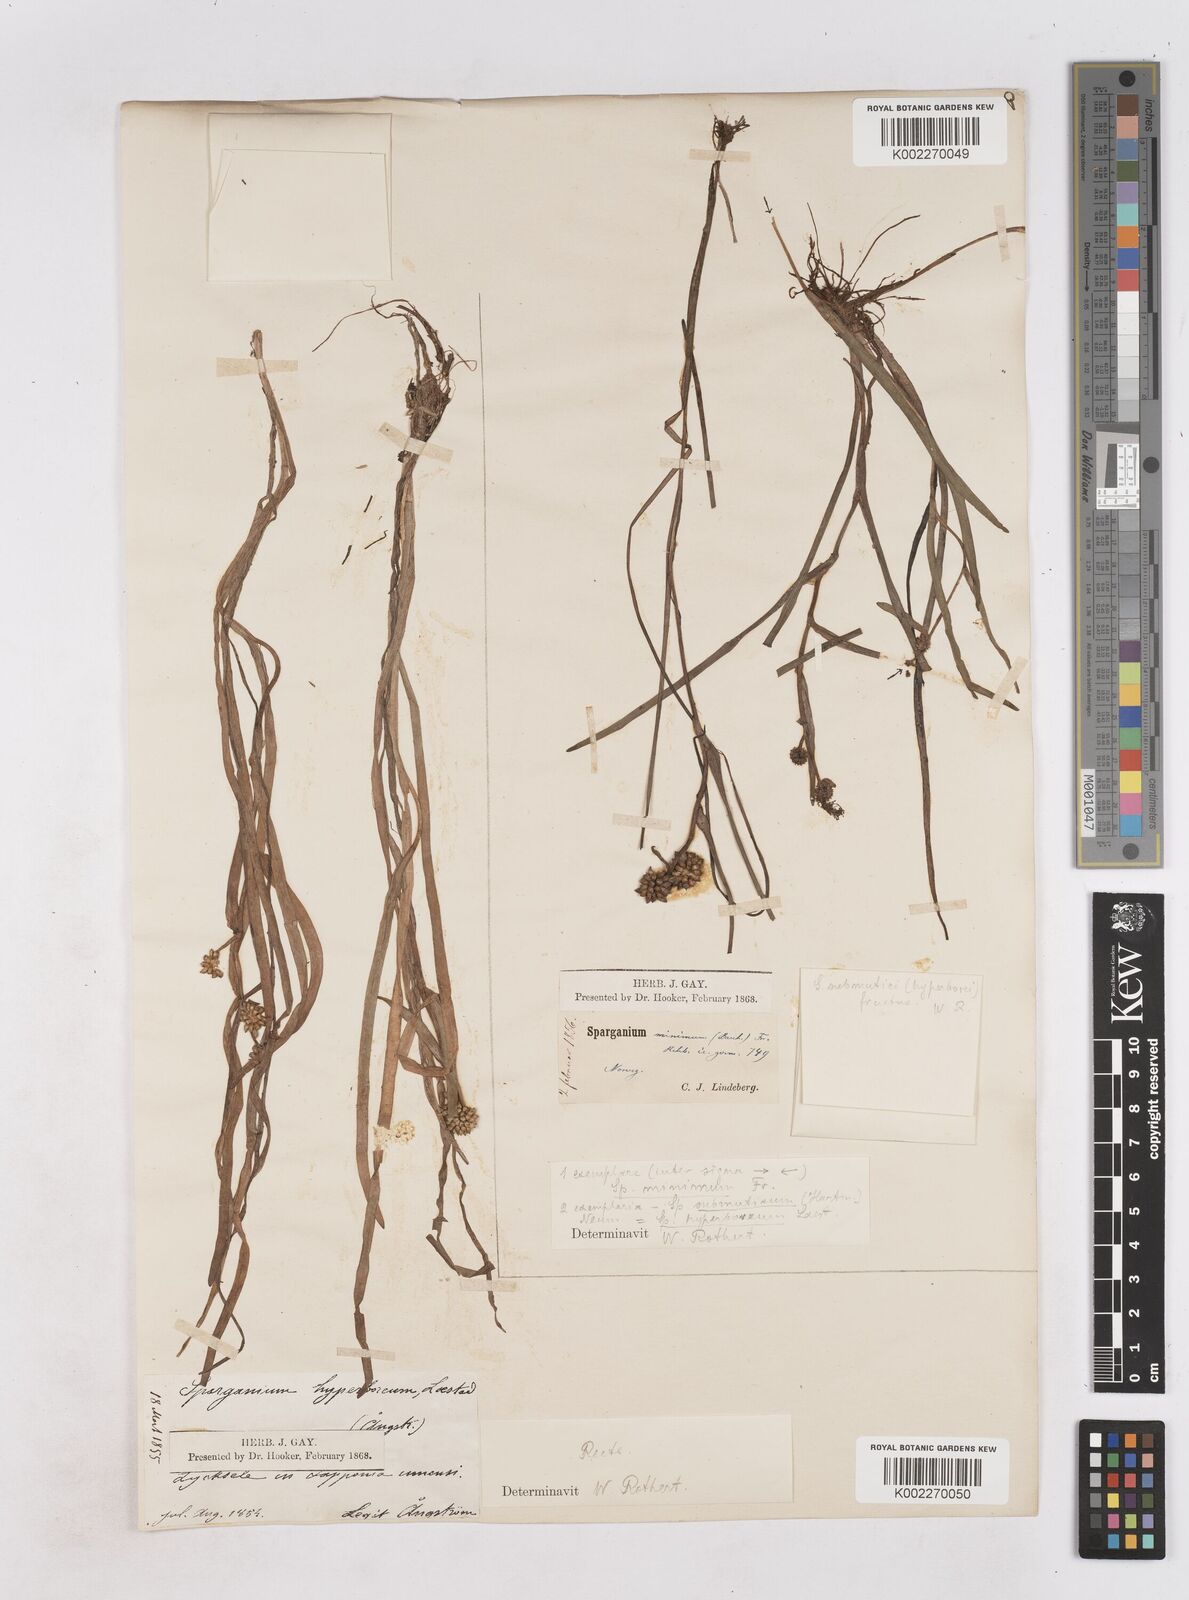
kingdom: Plantae
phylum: Tracheophyta
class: Liliopsida
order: Poales
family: Typhaceae
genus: Sparganium
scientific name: Sparganium hyperboreum
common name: Arctic burreed
